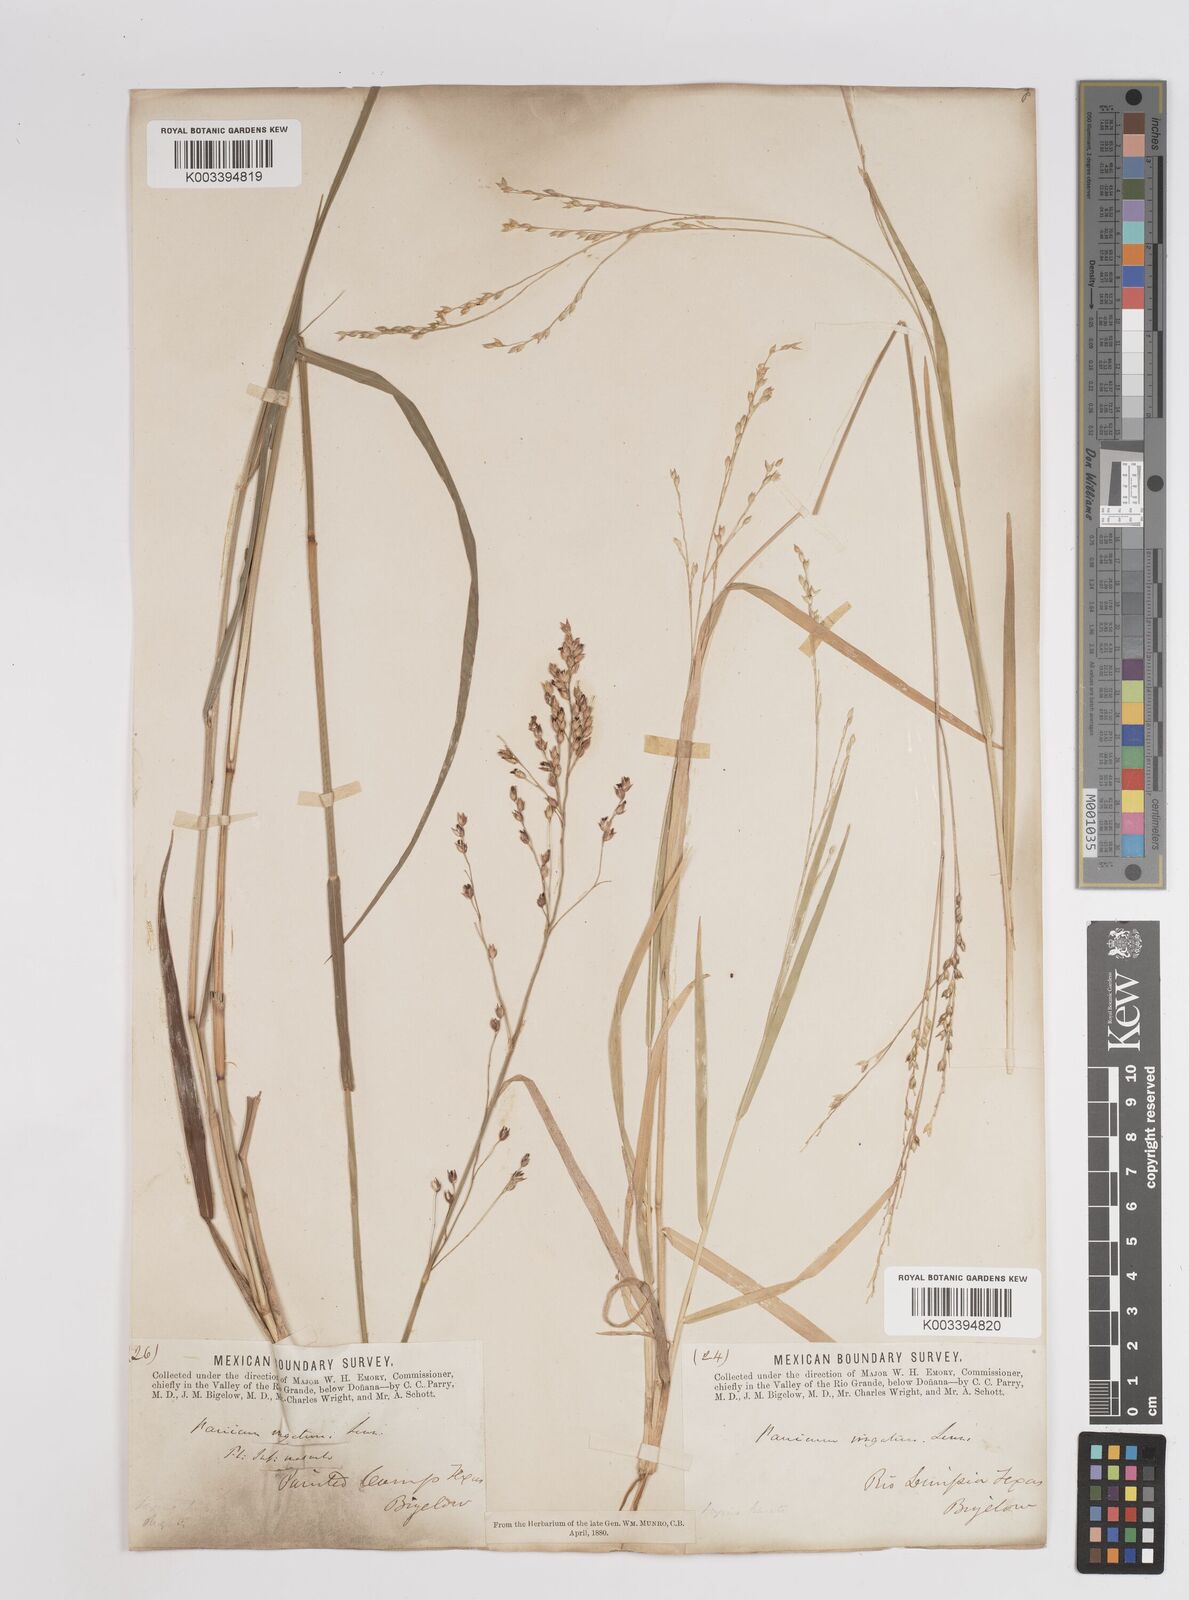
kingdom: Plantae
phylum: Tracheophyta
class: Liliopsida
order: Poales
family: Poaceae
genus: Panicum
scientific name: Panicum virgatum
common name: Switchgrass
